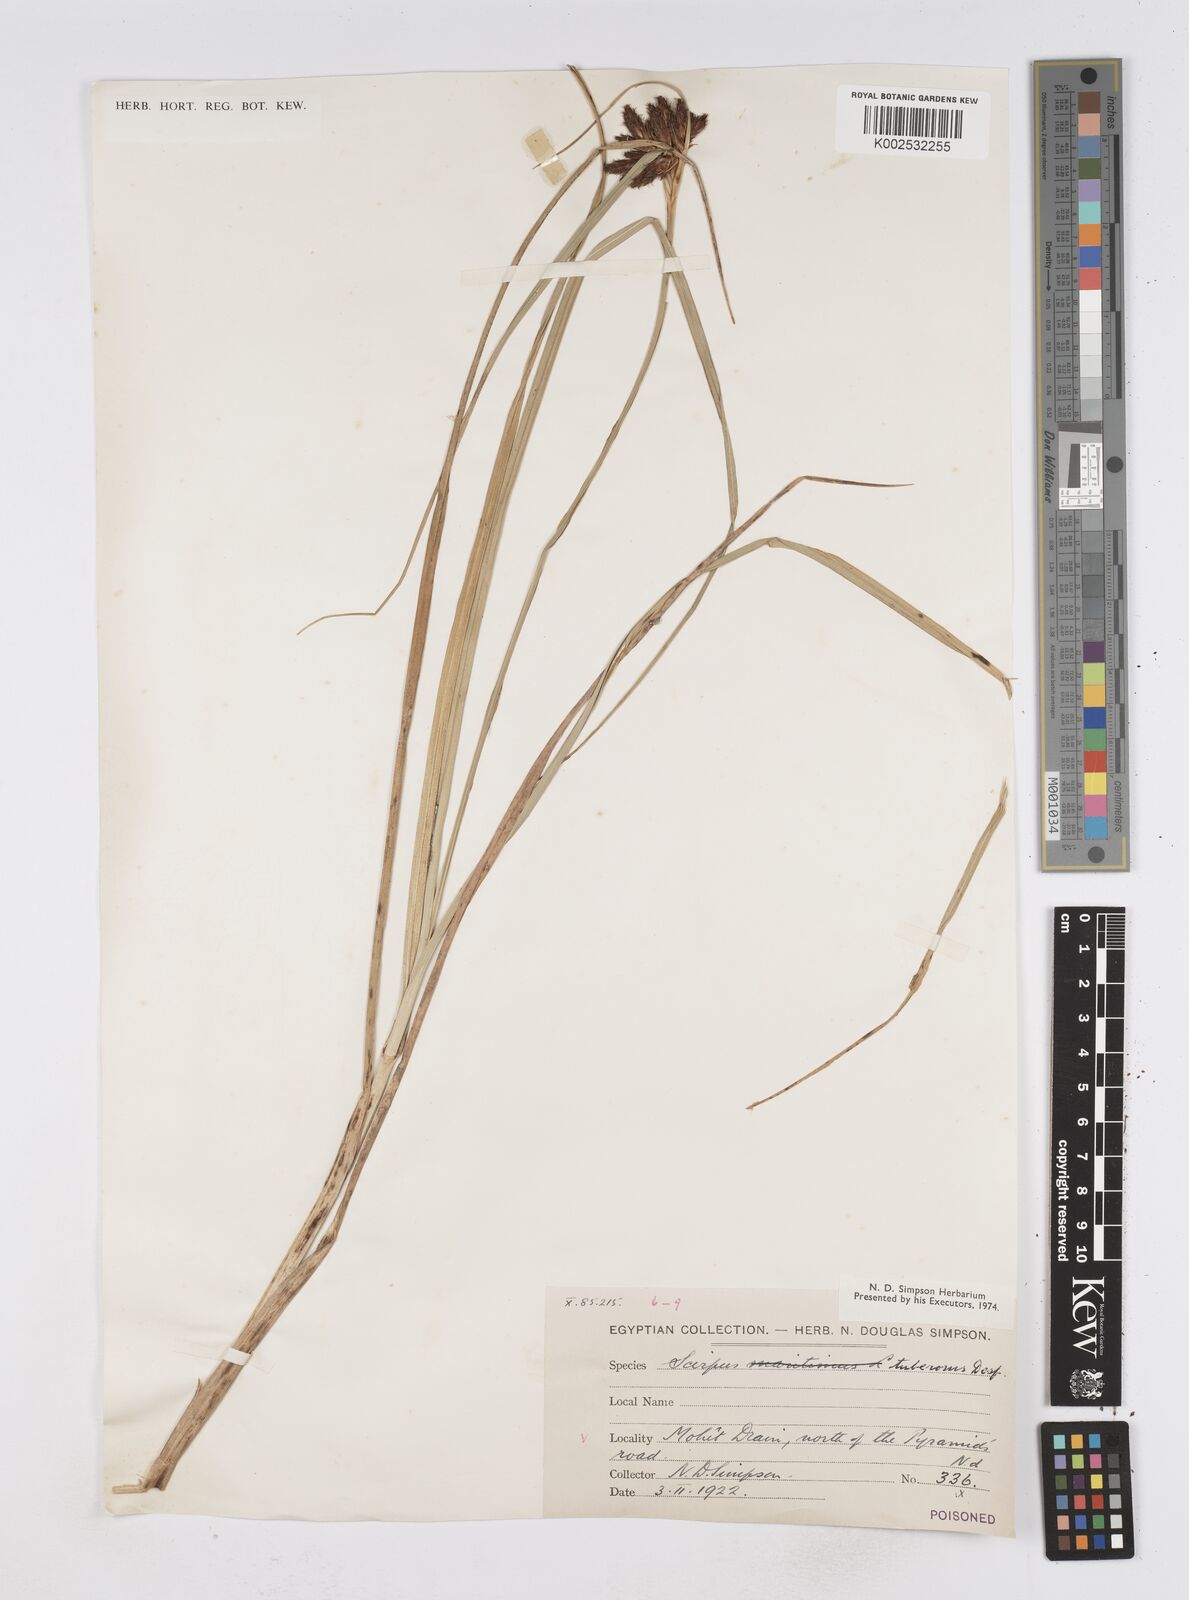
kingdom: Plantae
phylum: Tracheophyta
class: Liliopsida
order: Poales
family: Cyperaceae
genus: Bolboschoenus
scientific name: Bolboschoenus maritimus
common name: Sea club-rush
